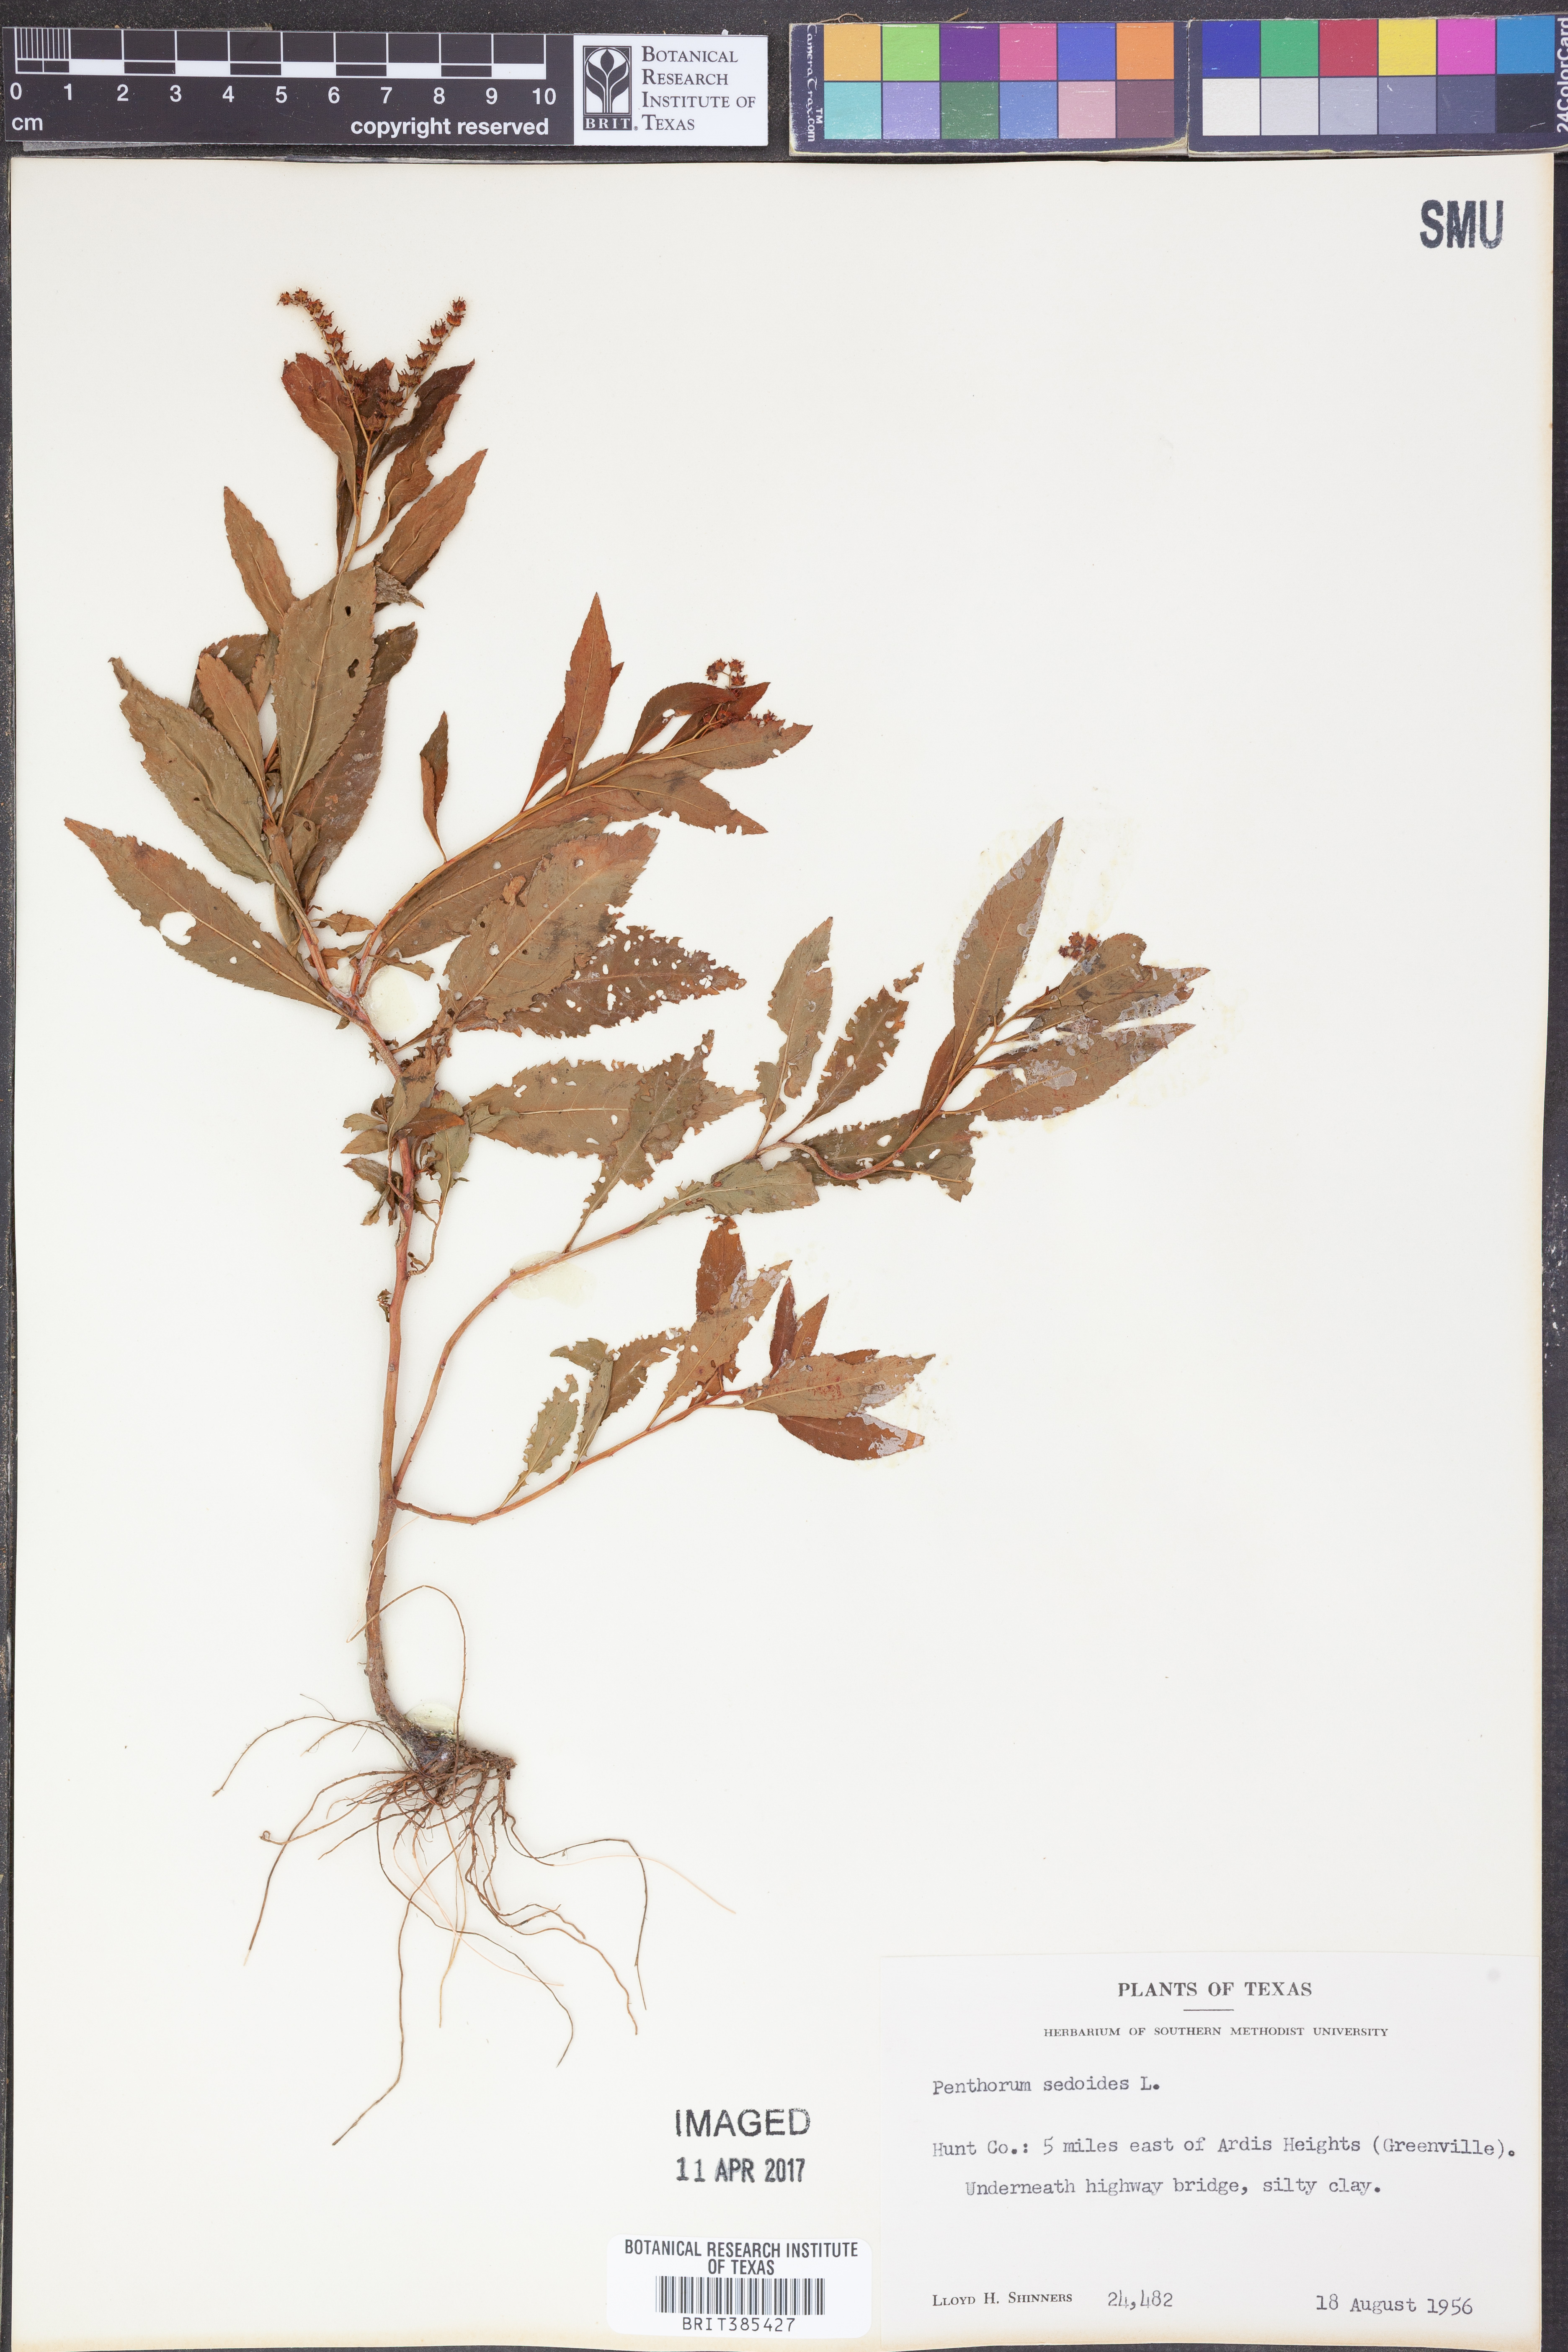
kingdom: Plantae
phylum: Tracheophyta
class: Magnoliopsida
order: Saxifragales
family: Penthoraceae
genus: Penthorum
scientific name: Penthorum sedoides
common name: Ditch stonecrop
